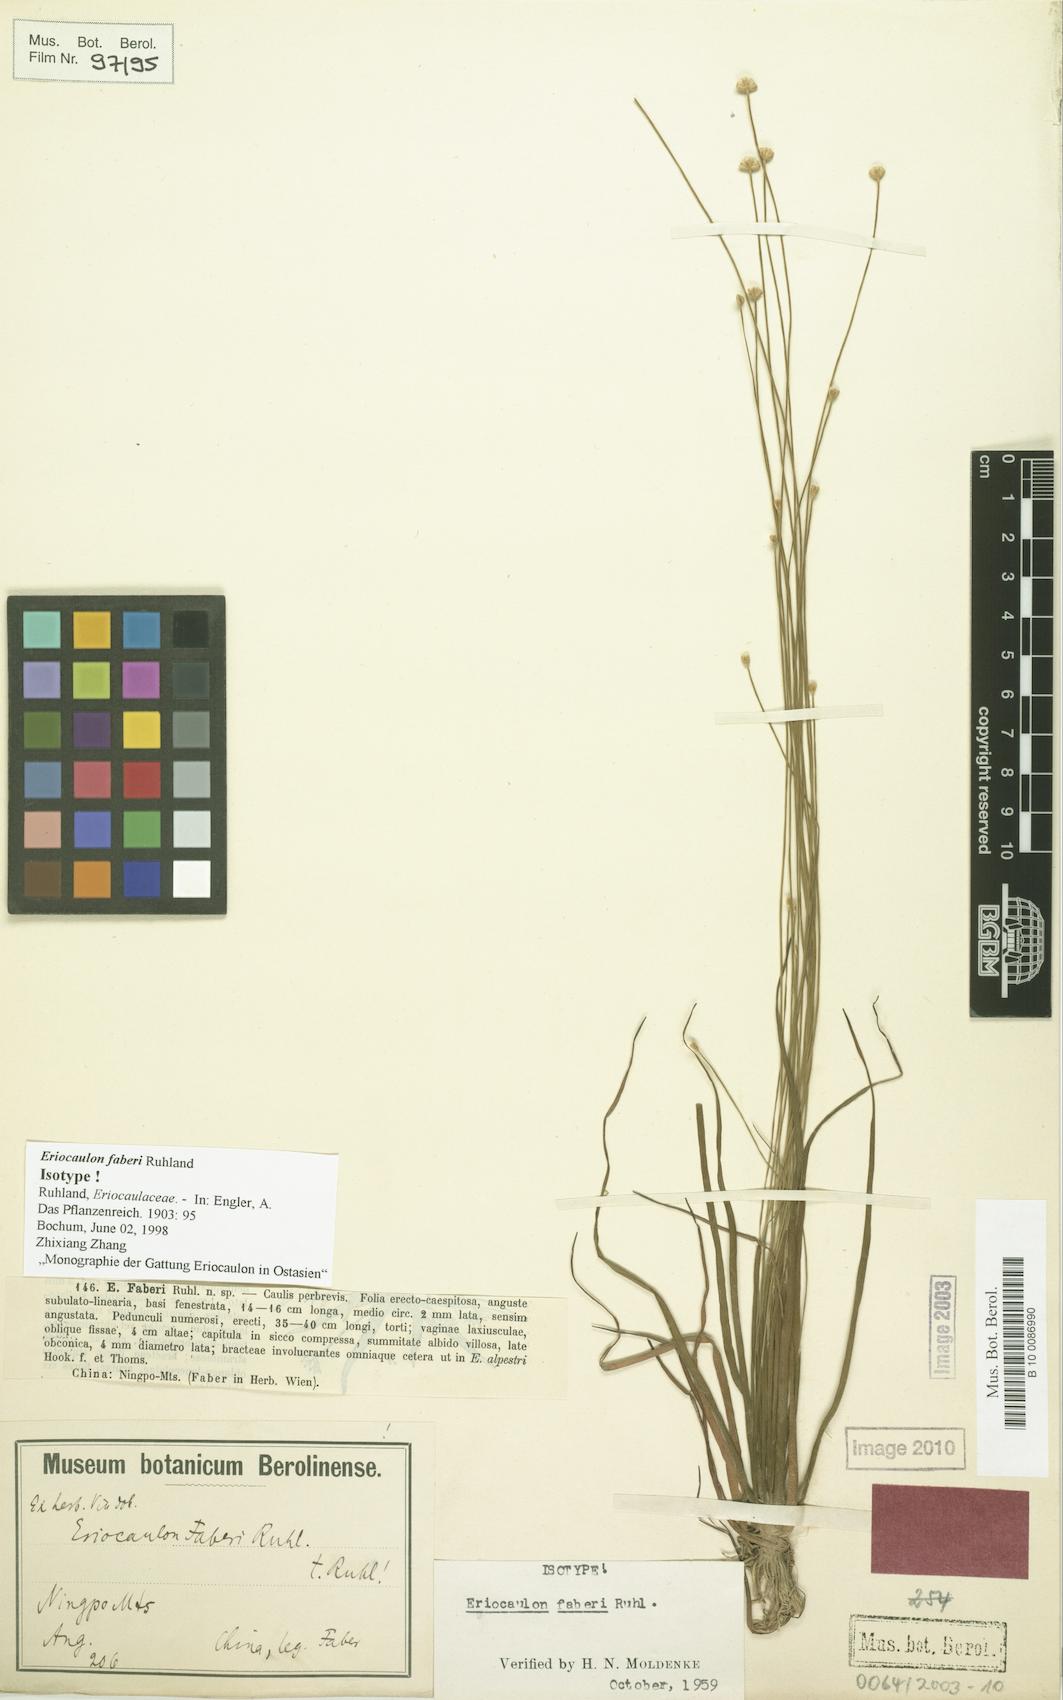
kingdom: Plantae
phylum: Tracheophyta
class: Liliopsida
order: Poales
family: Eriocaulaceae
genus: Eriocaulon
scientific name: Eriocaulon faberi
